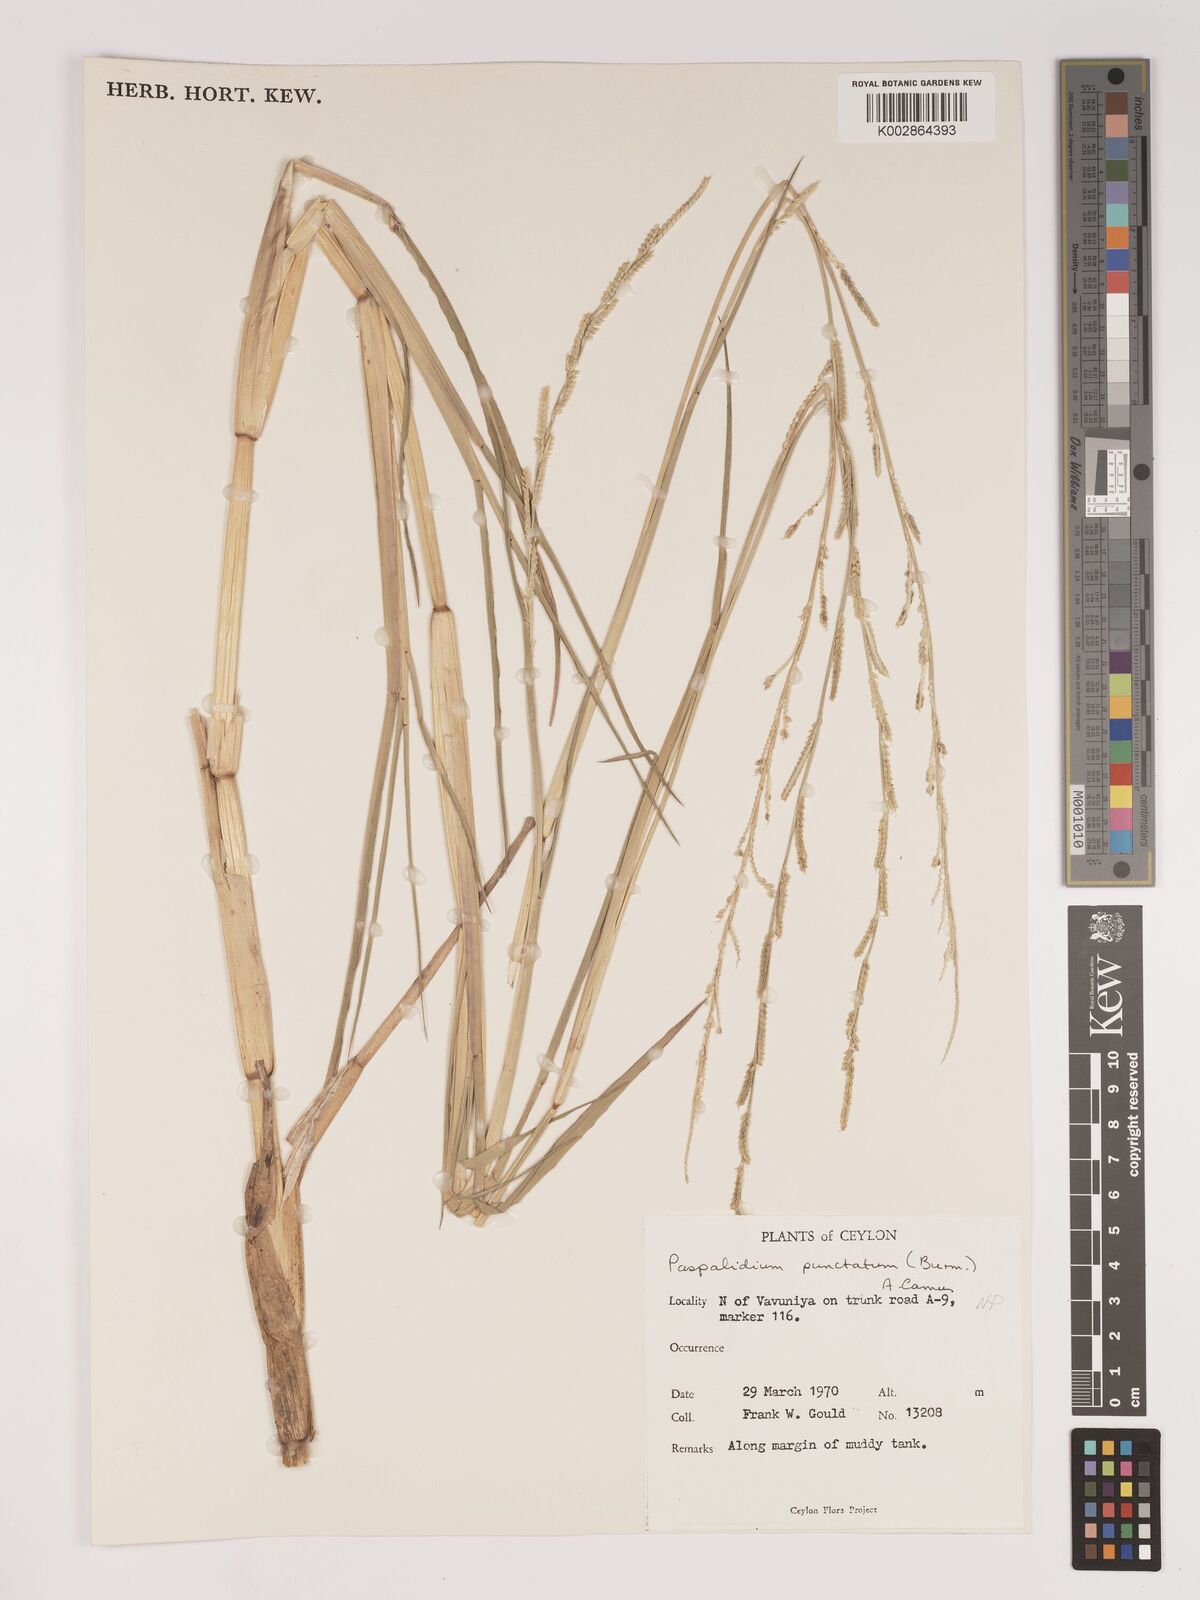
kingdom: Plantae
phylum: Tracheophyta
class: Liliopsida
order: Poales
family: Poaceae
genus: Setaria
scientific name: Setaria punctata
